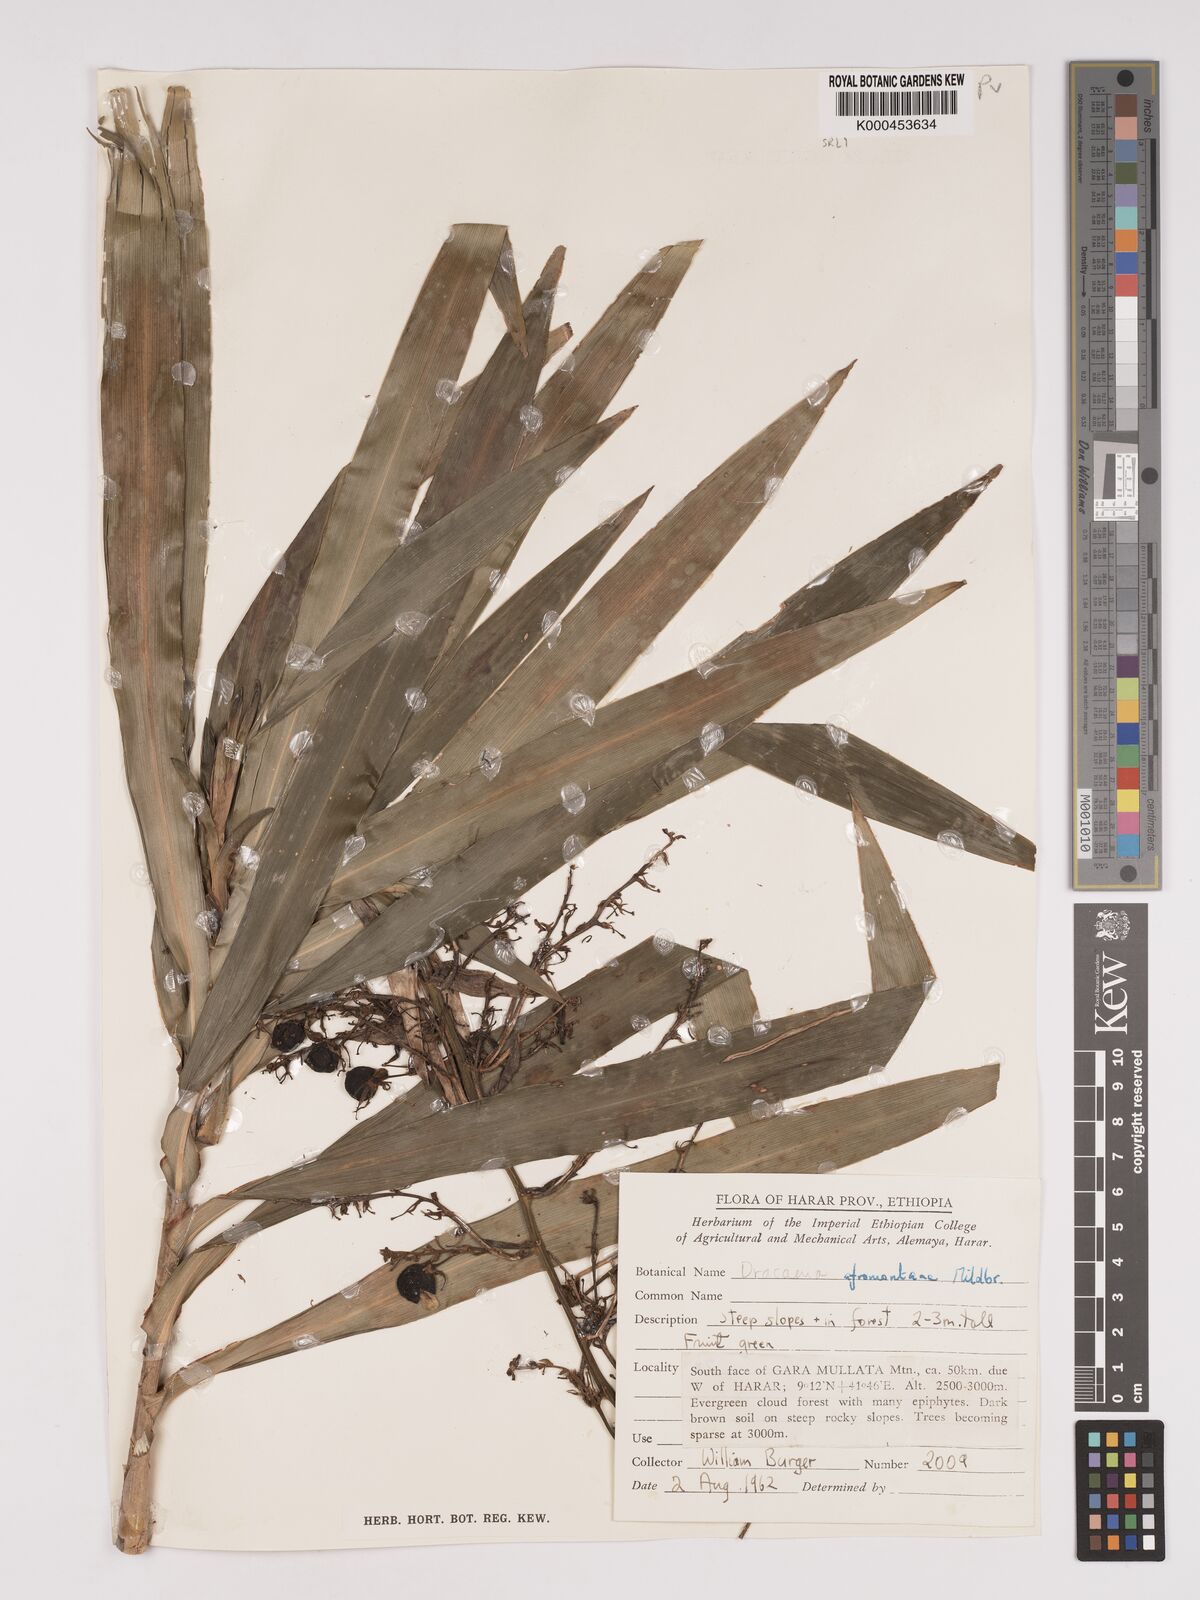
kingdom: Plantae
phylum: Tracheophyta
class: Liliopsida
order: Asparagales
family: Asparagaceae
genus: Dracaena
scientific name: Dracaena afromontana
